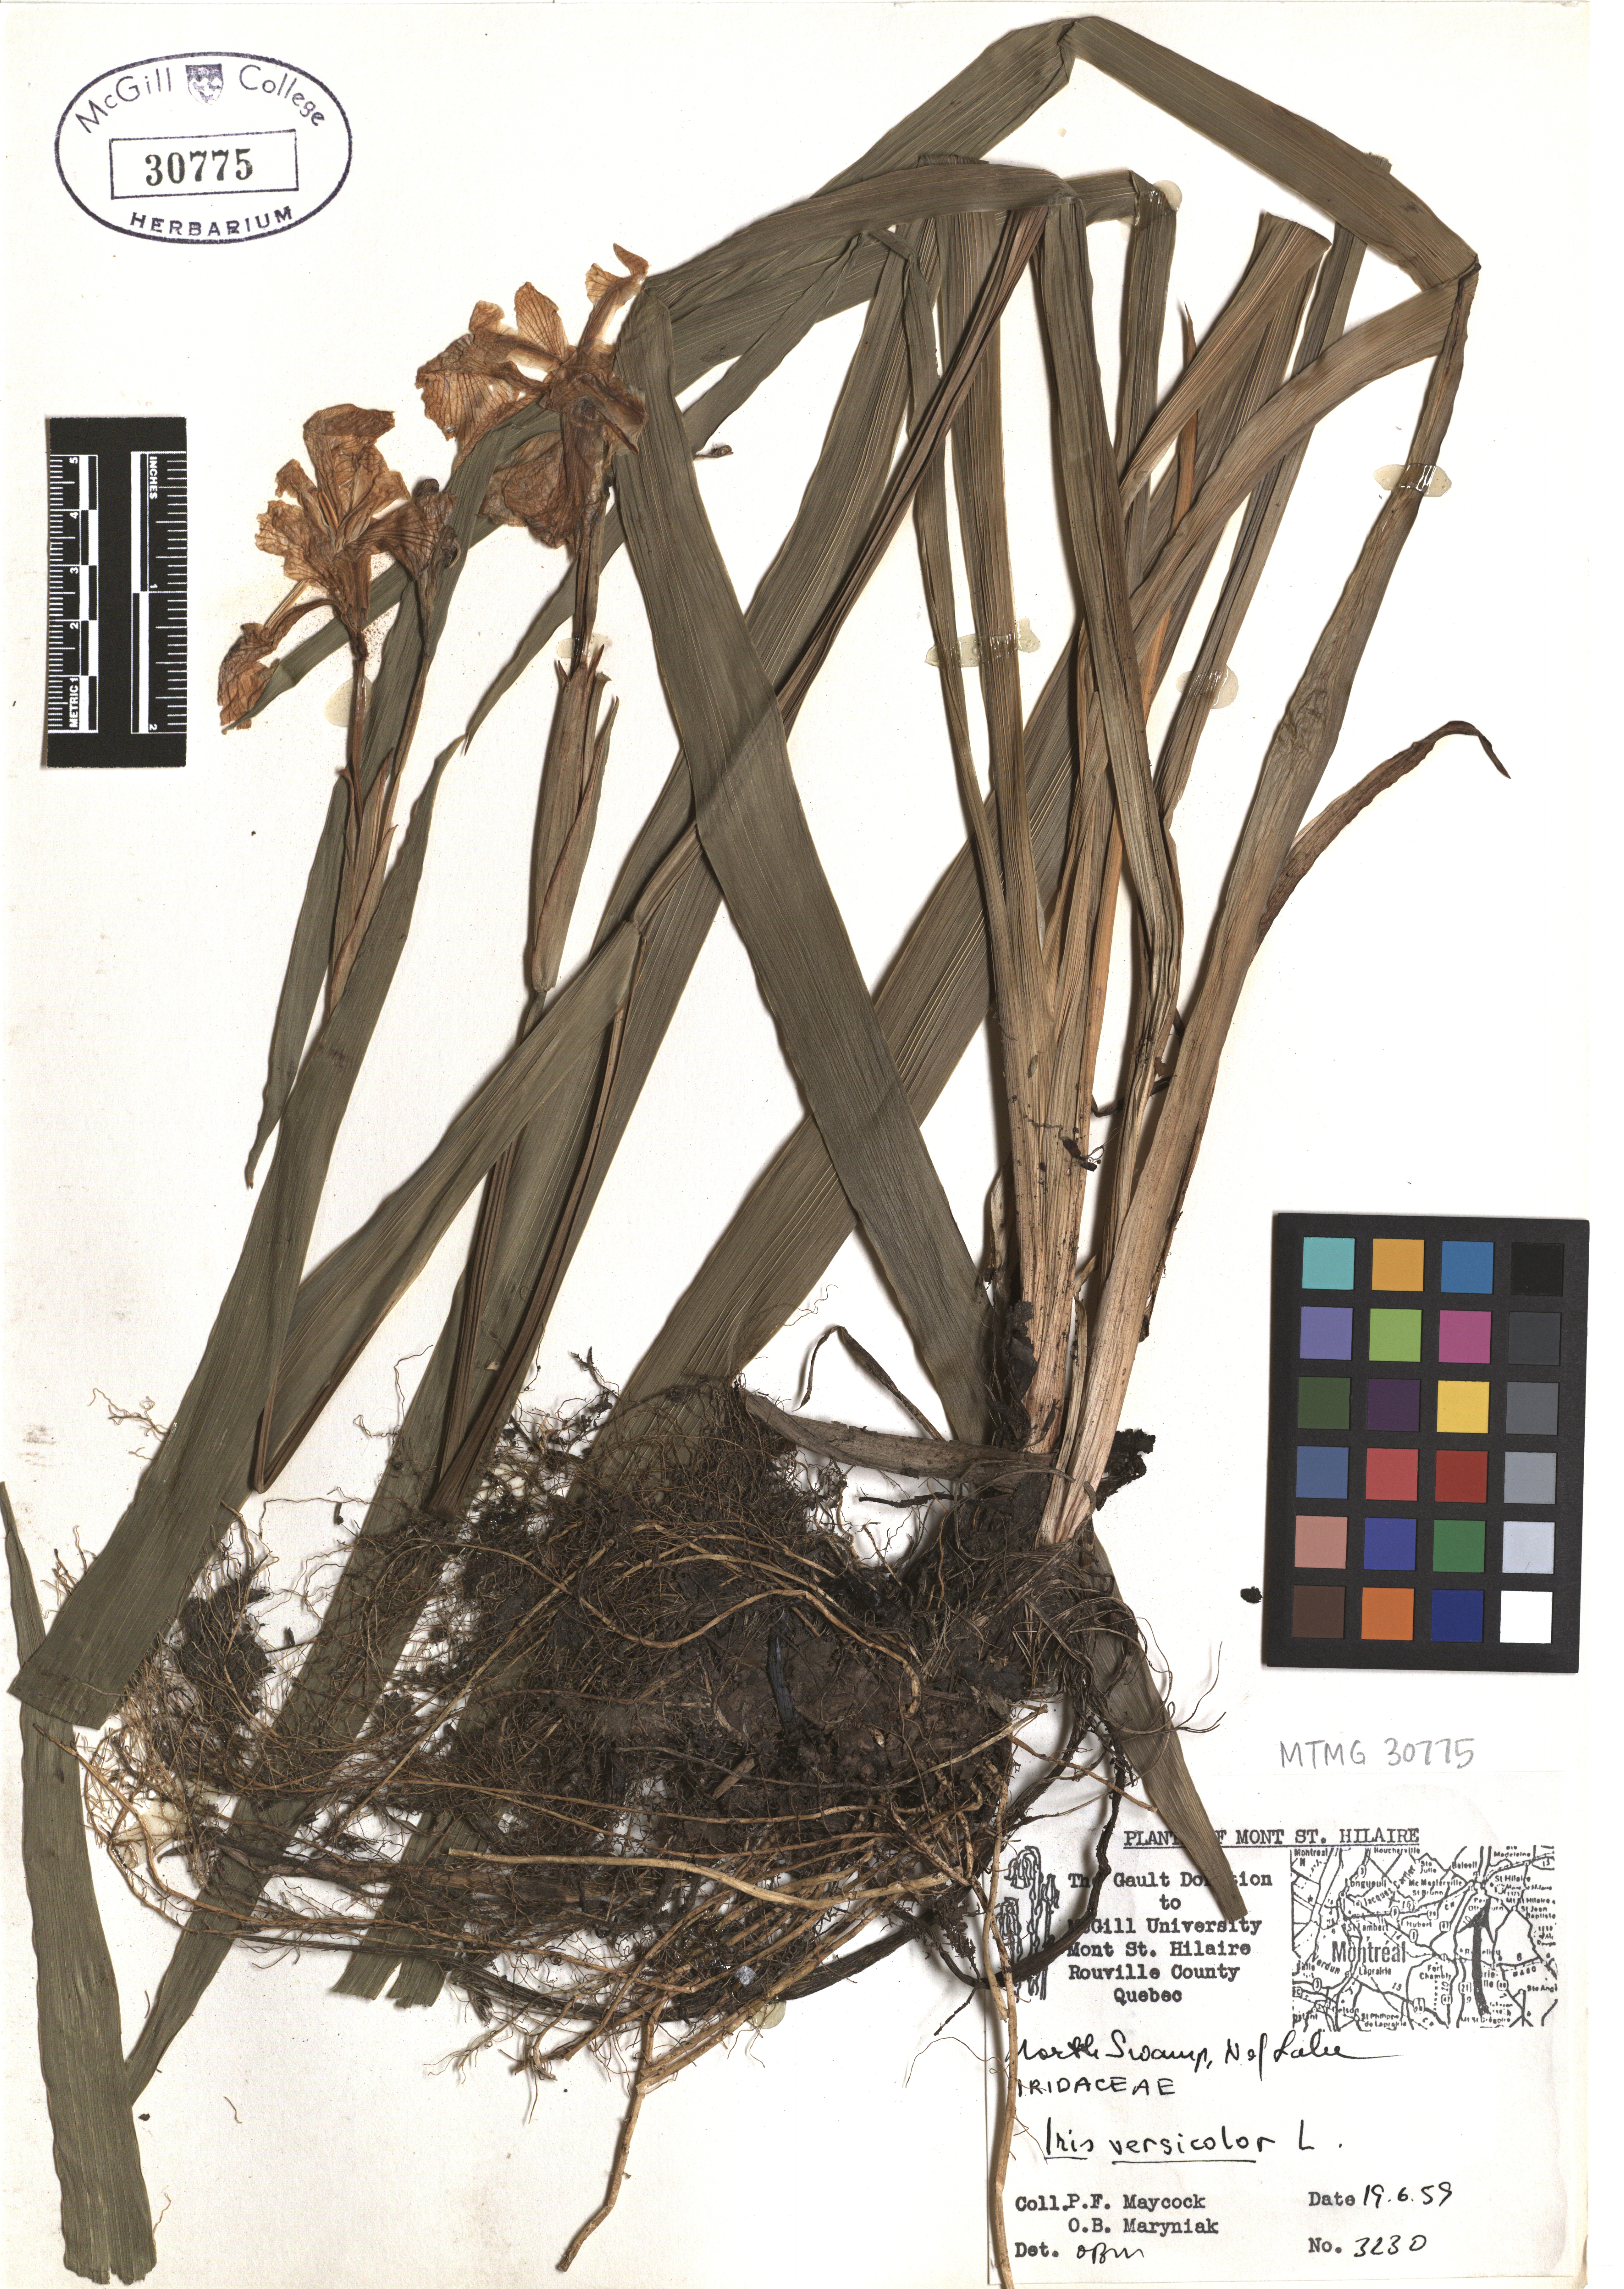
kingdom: Plantae
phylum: Tracheophyta
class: Liliopsida
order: Asparagales
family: Iridaceae
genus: Iris
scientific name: Iris versicolor
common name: Purple iris
